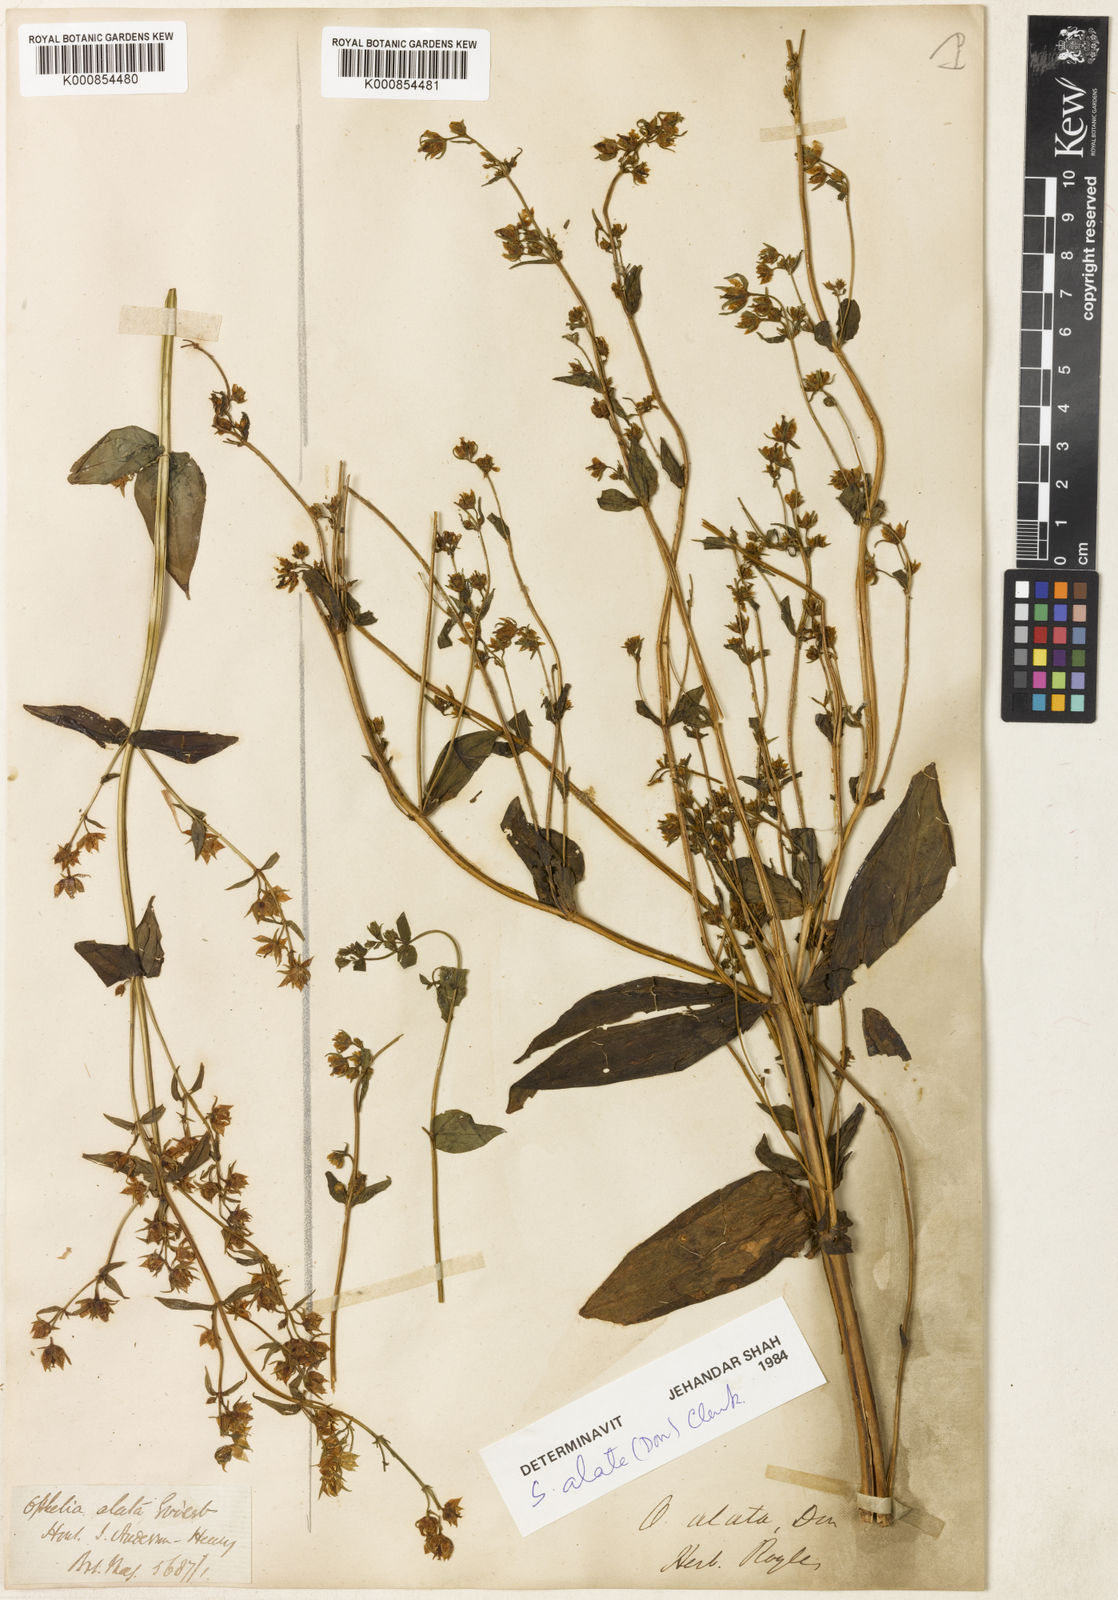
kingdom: Plantae
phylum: Tracheophyta
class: Magnoliopsida
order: Gentianales
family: Gentianaceae
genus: Swertia
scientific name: Swertia alata
